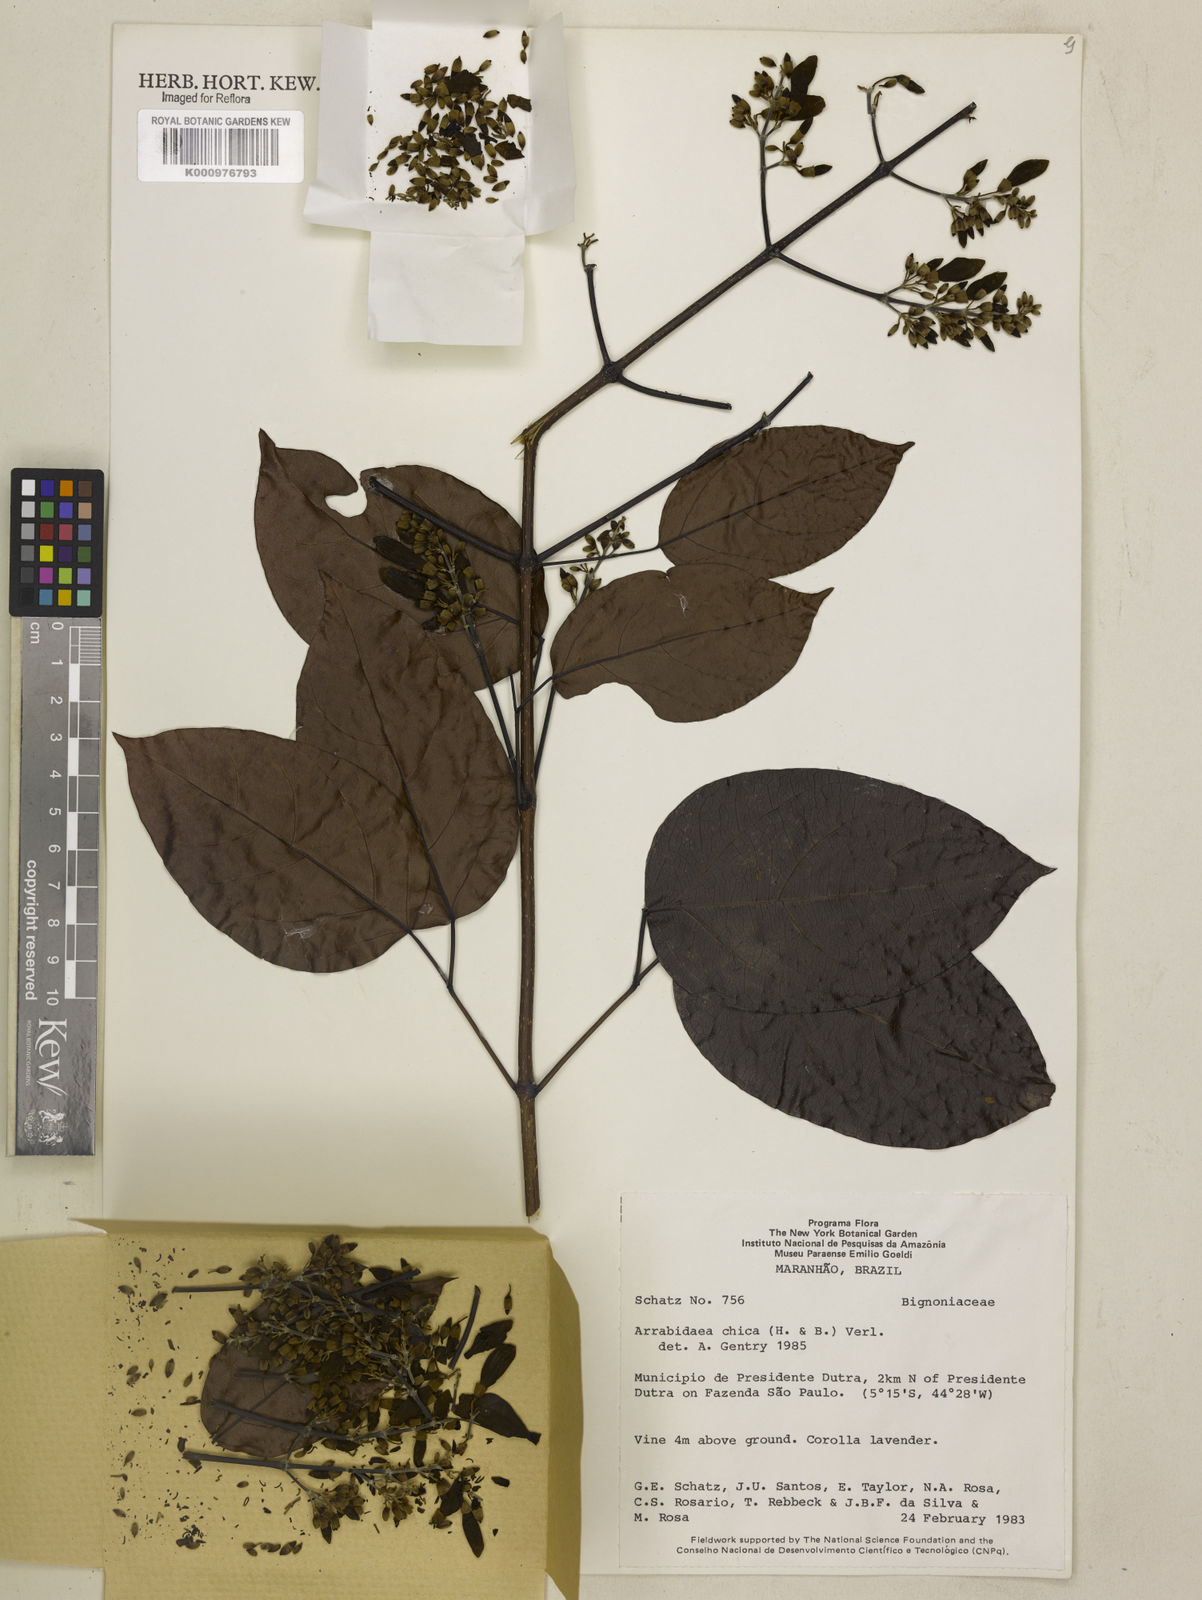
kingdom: Plantae
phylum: Tracheophyta
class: Magnoliopsida
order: Lamiales
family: Bignoniaceae
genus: Fridericia
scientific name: Fridericia chica
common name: Cricketvine
